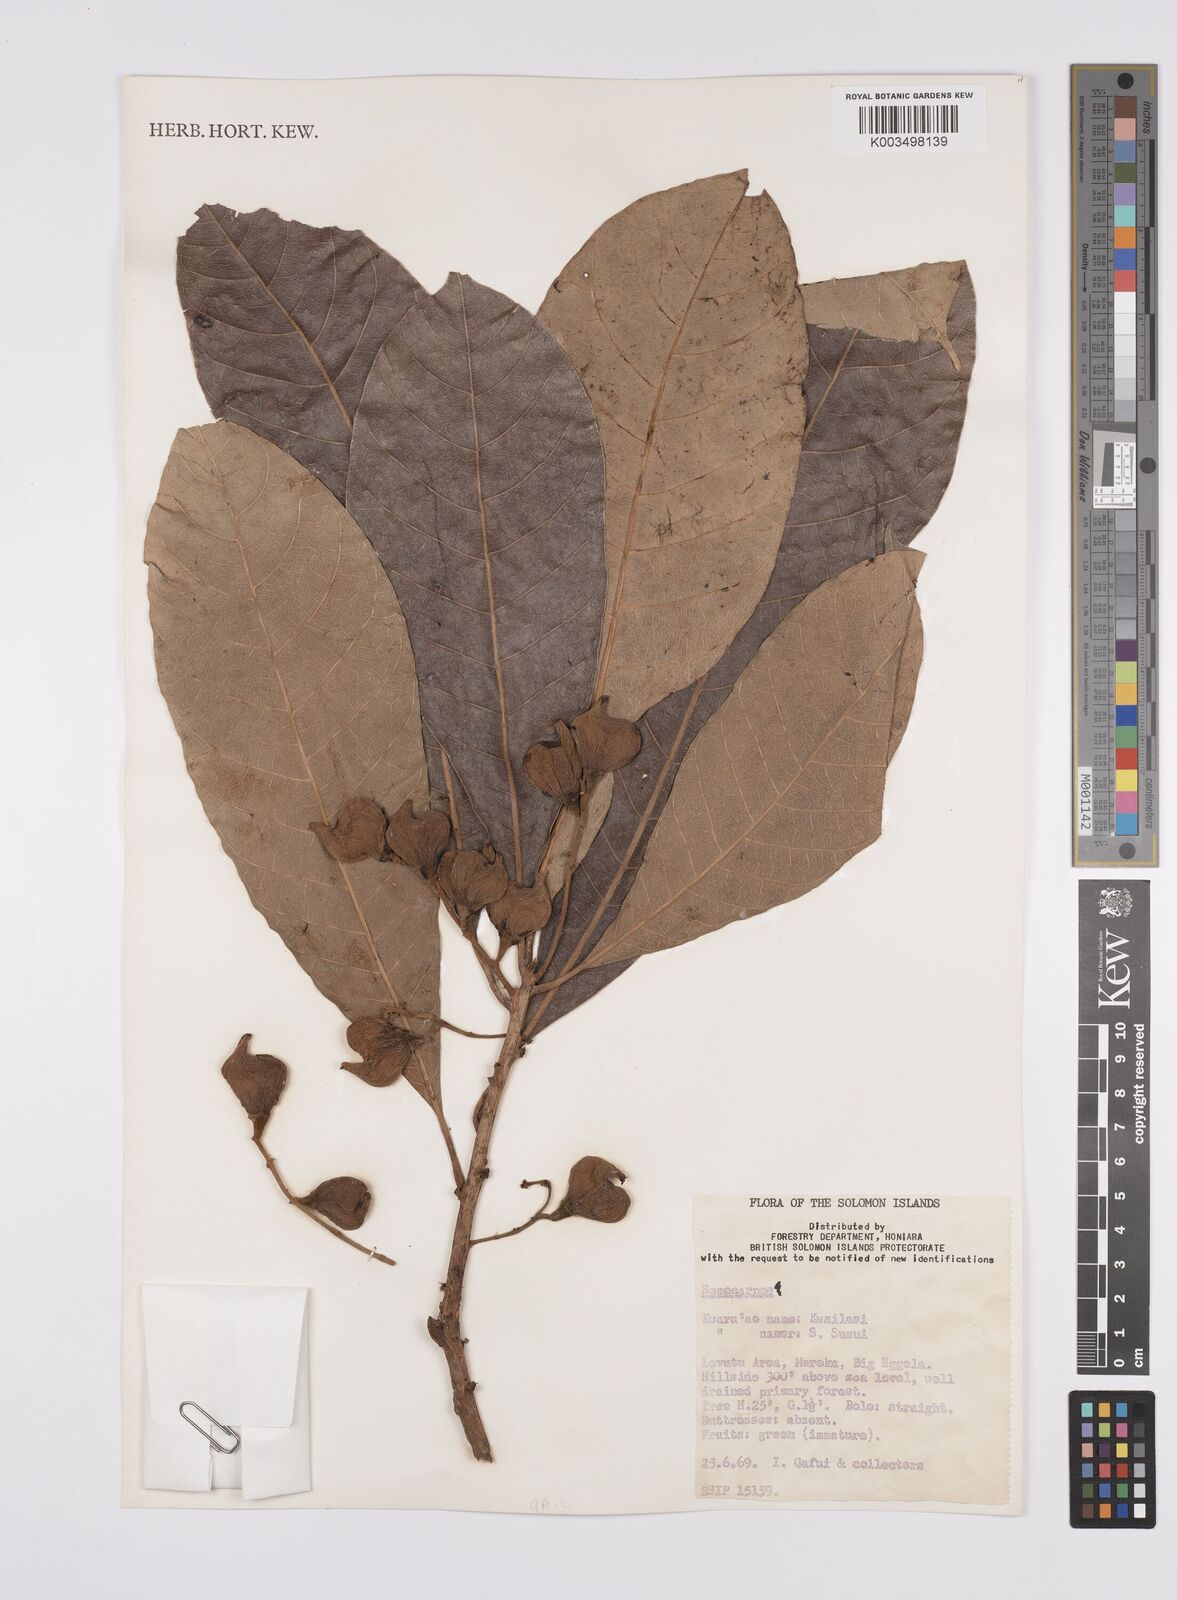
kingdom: Plantae
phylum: Tracheophyta
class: Magnoliopsida
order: Sapindales
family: Anacardiaceae
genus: Semecarpus
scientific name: Semecarpus
